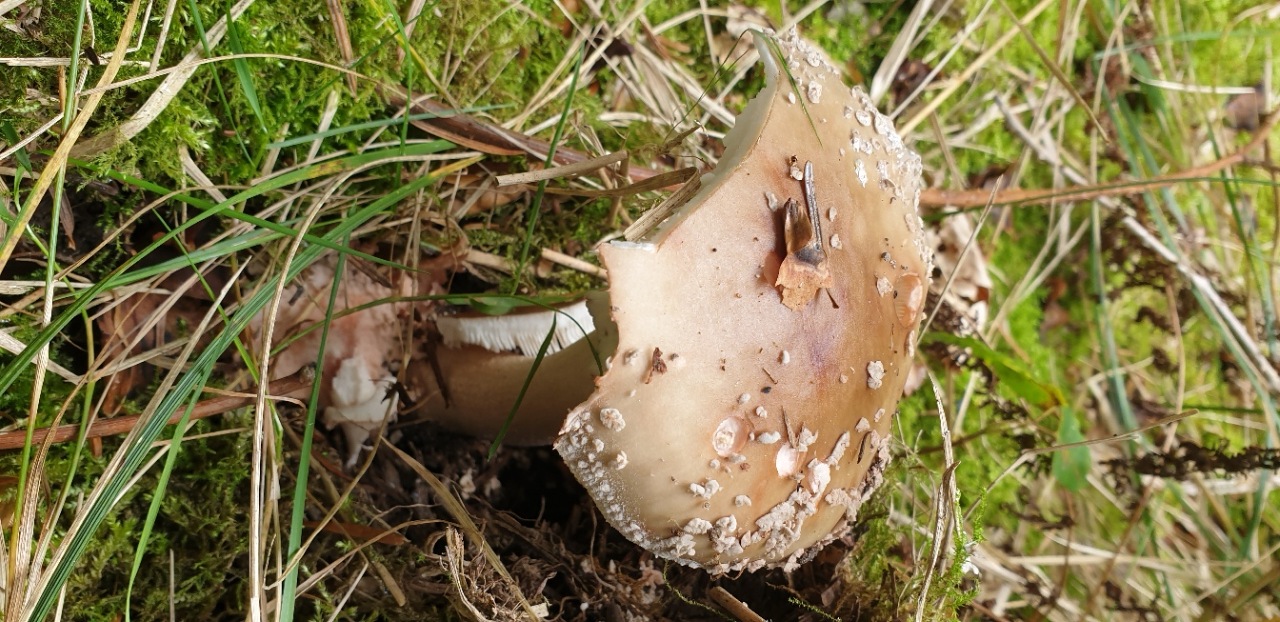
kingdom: Fungi
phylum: Basidiomycota
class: Agaricomycetes
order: Agaricales
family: Amanitaceae
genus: Amanita
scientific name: Amanita rubescens
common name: rødmende fluesvamp
